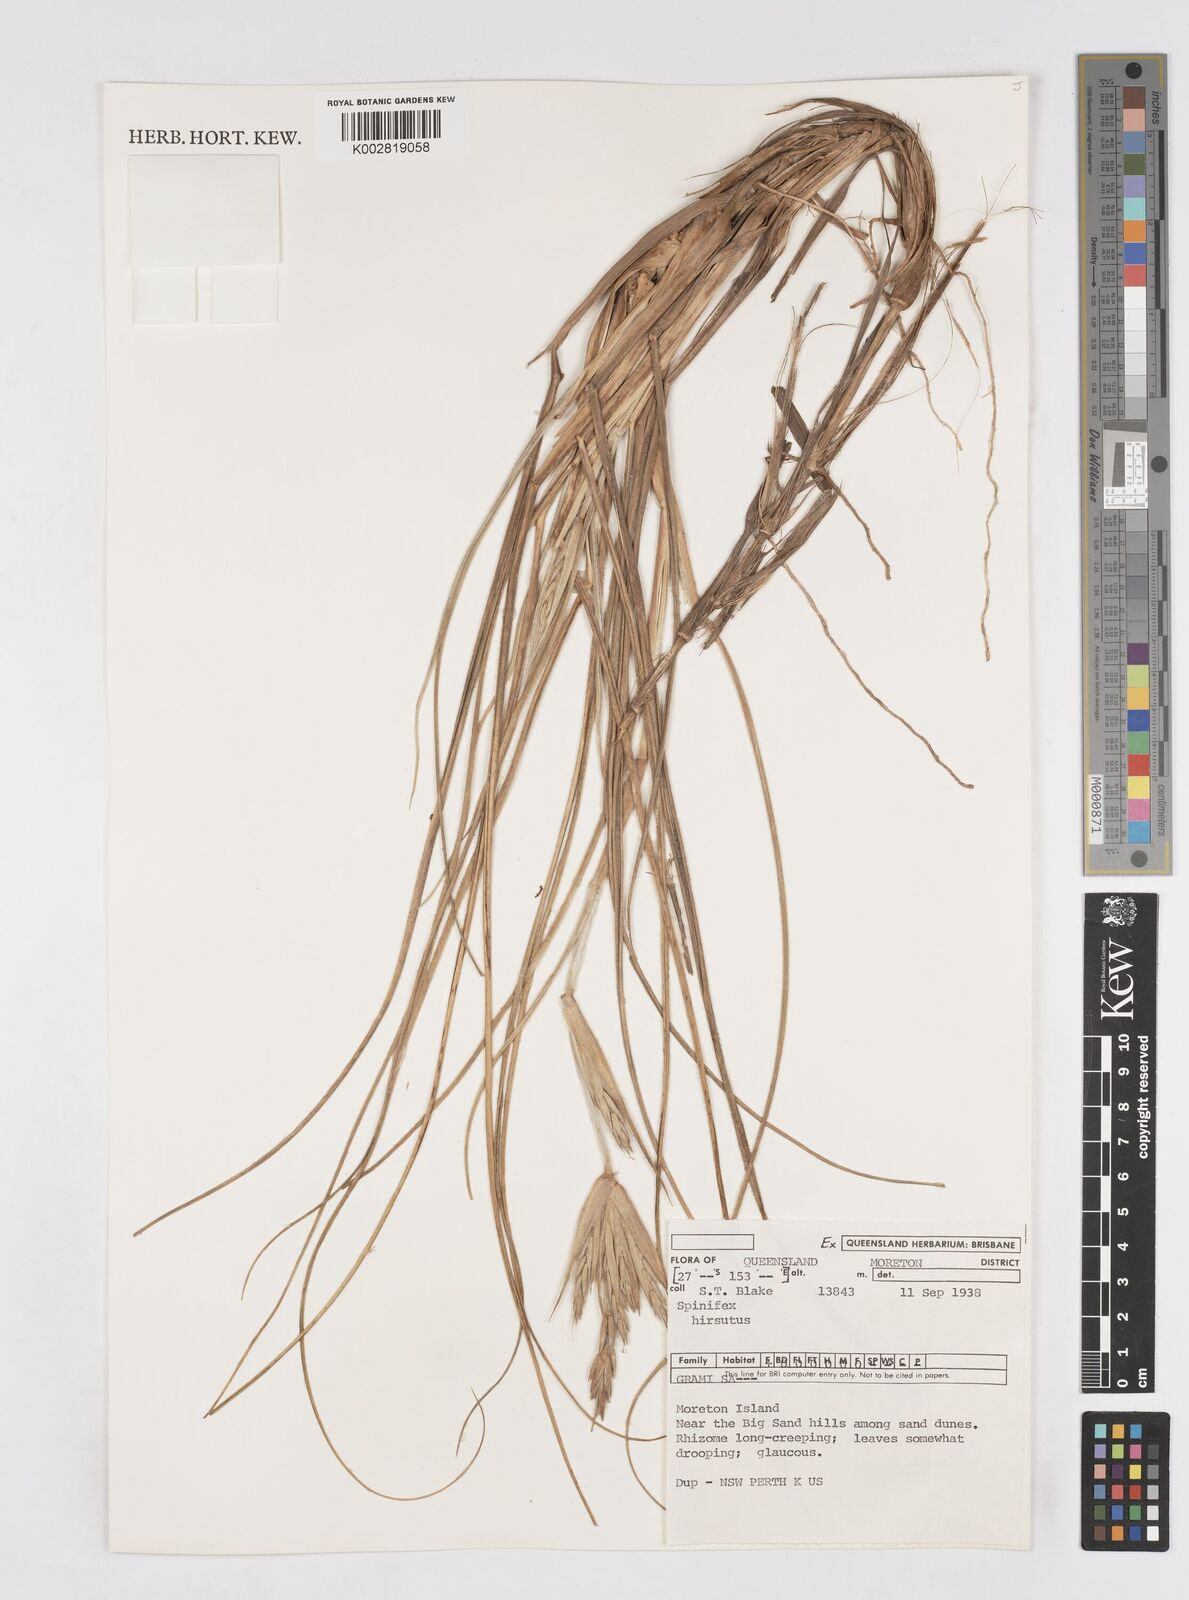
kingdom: Plantae
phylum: Tracheophyta
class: Liliopsida
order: Poales
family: Poaceae
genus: Spinifex
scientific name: Spinifex hirsutus
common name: Hairy spinifex
